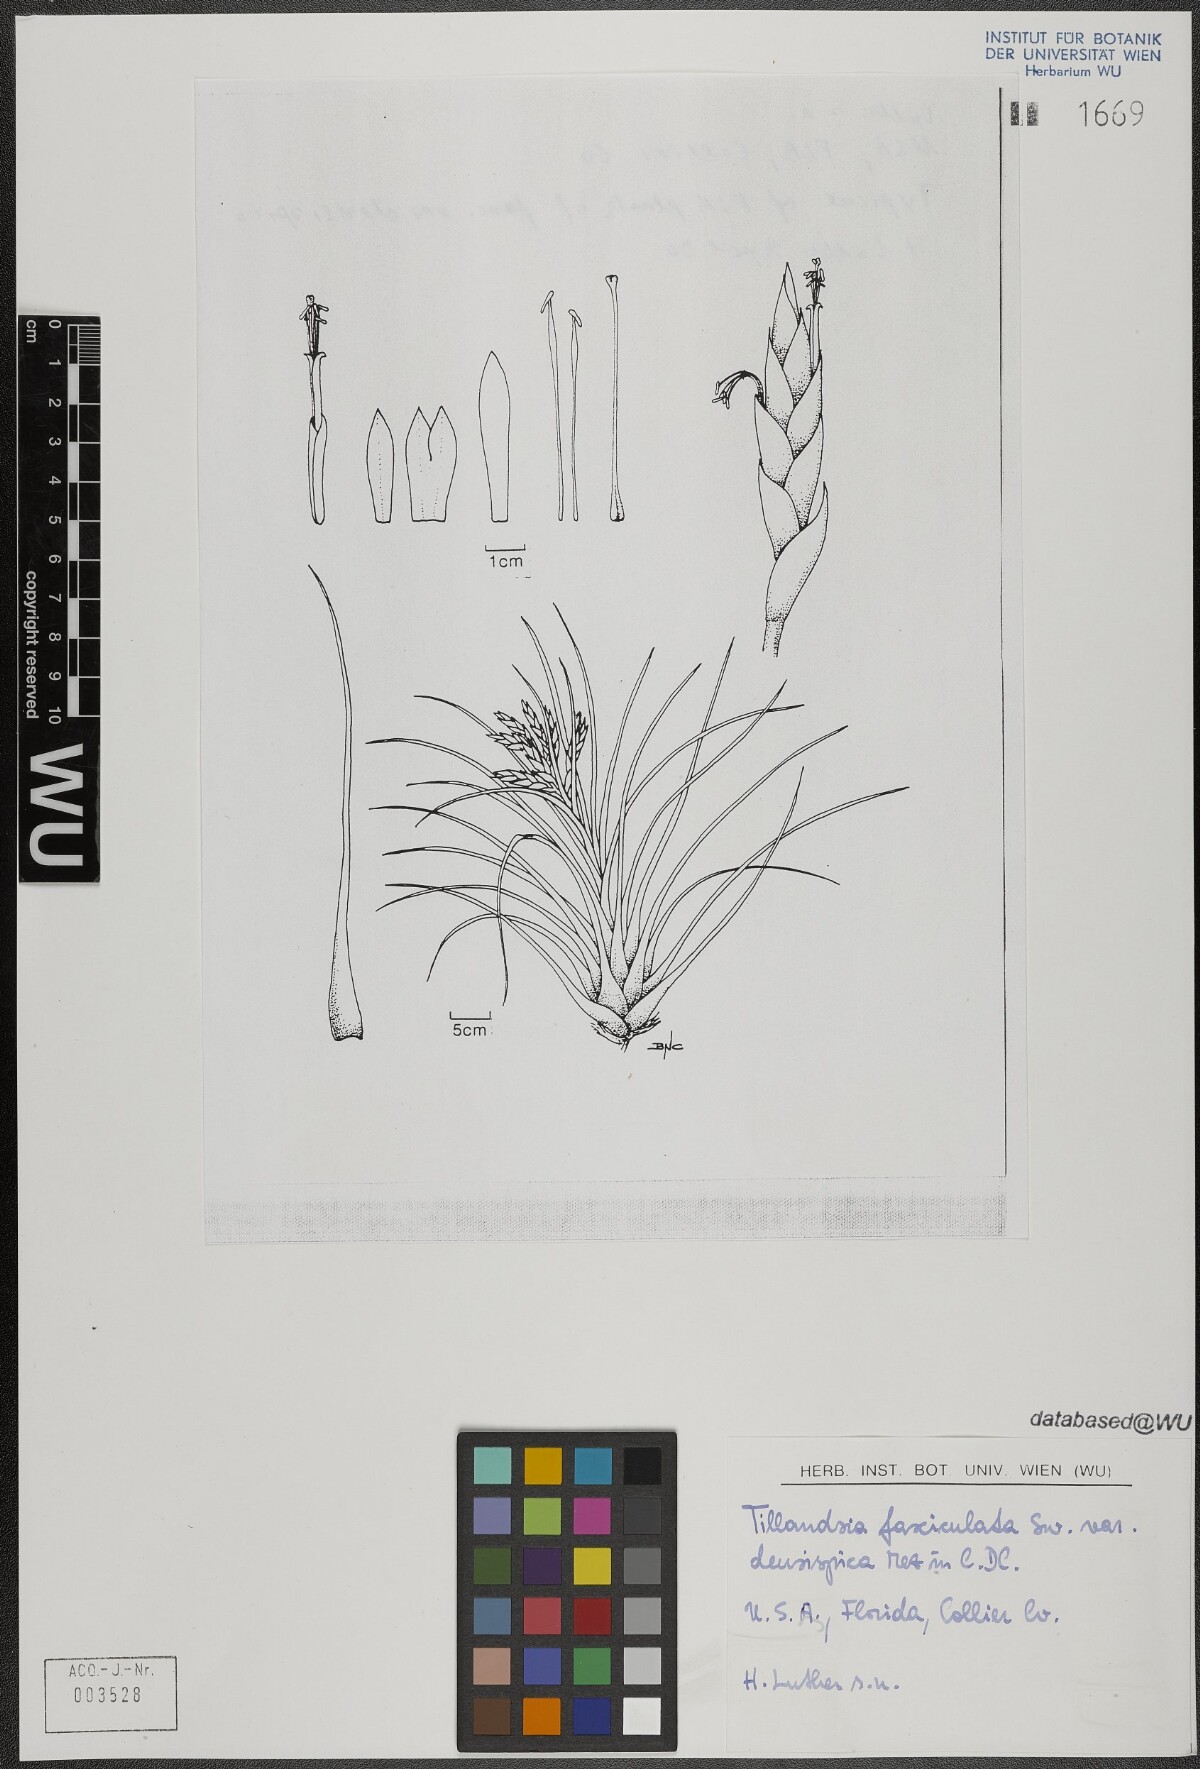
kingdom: Plantae
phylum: Tracheophyta
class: Liliopsida
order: Poales
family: Bromeliaceae
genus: Tillandsia
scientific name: Tillandsia fasciculata
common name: Giant airplant
